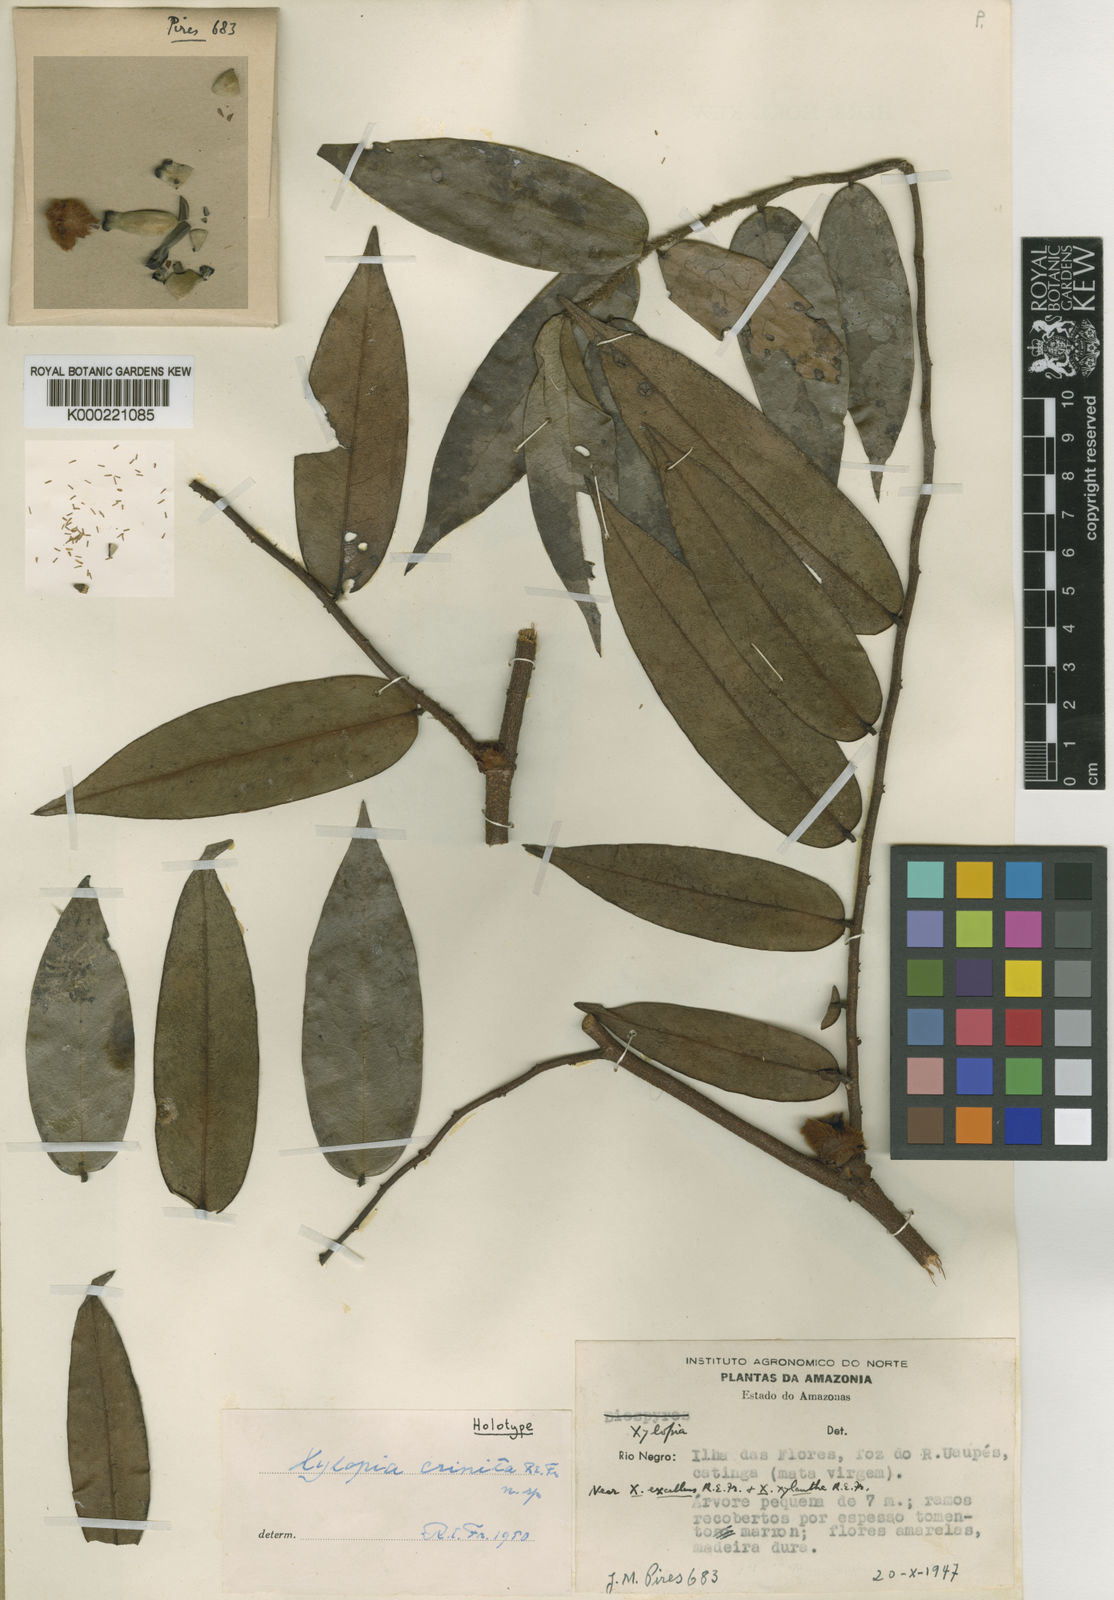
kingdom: Plantae
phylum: Tracheophyta
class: Magnoliopsida
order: Magnoliales
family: Annonaceae
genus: Xylopia
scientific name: Xylopia crinita
